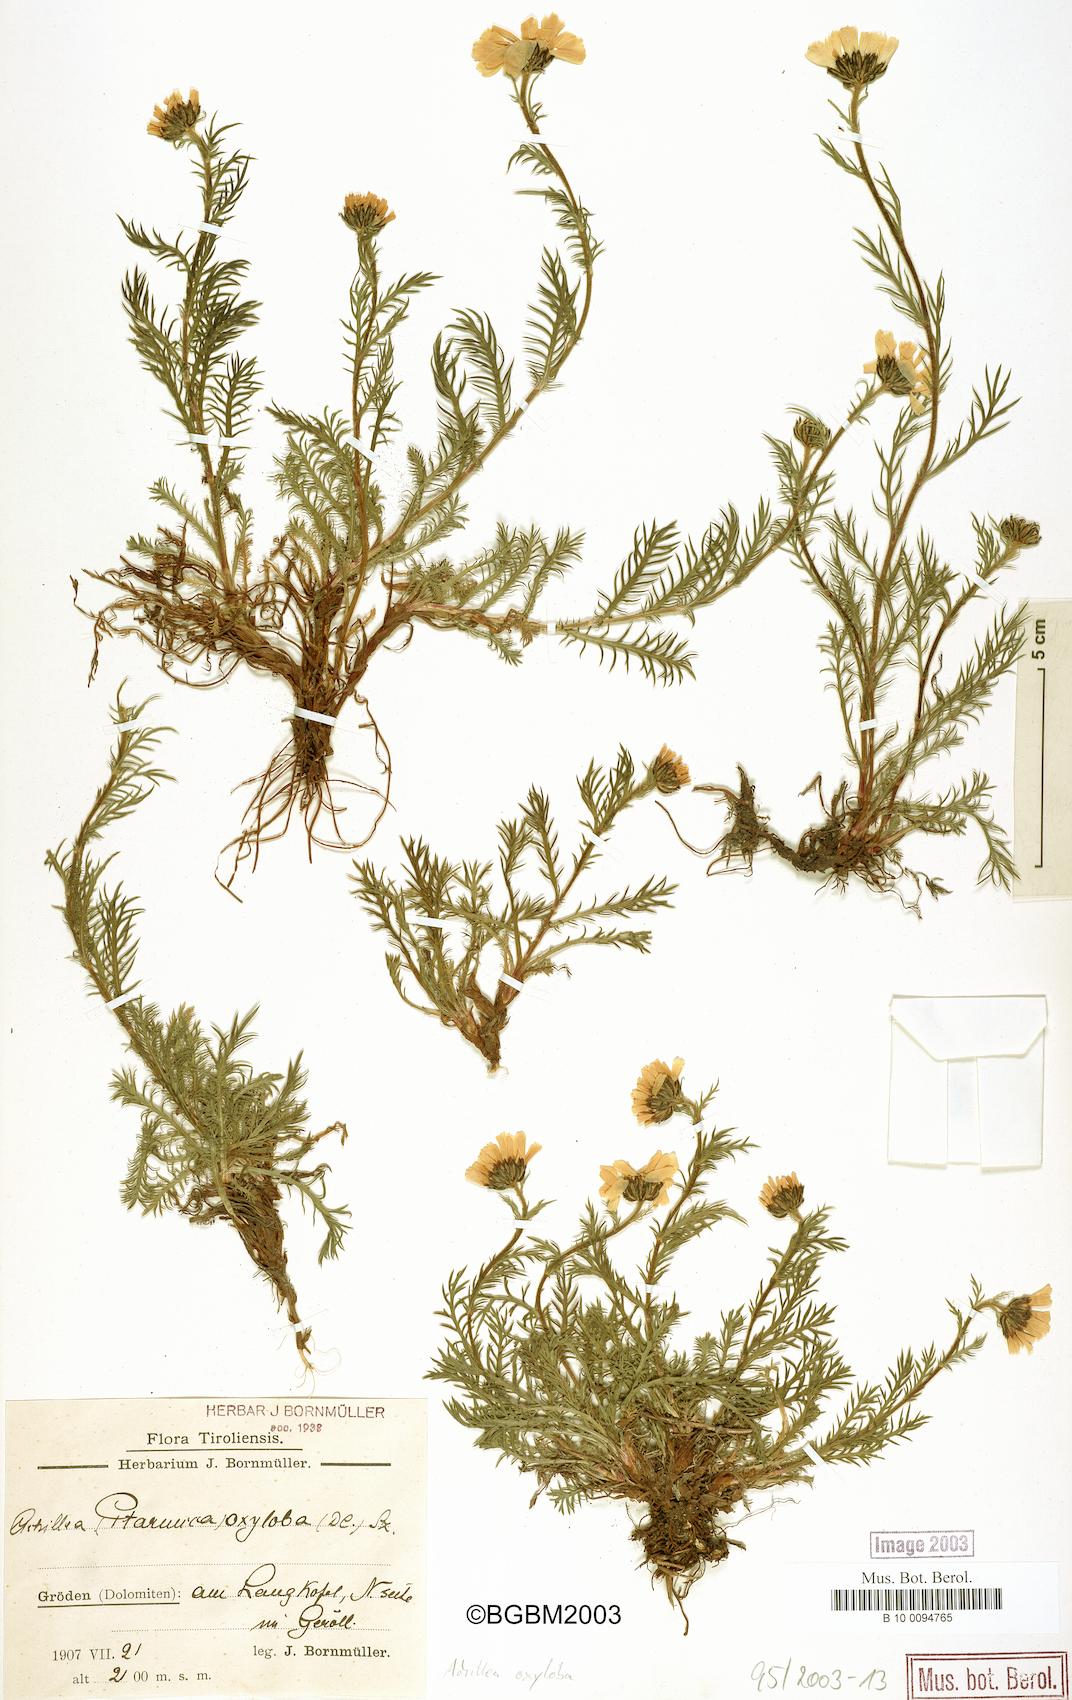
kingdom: Plantae
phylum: Tracheophyta
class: Magnoliopsida
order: Asterales
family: Asteraceae
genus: Achillea
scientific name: Achillea oxyloba
